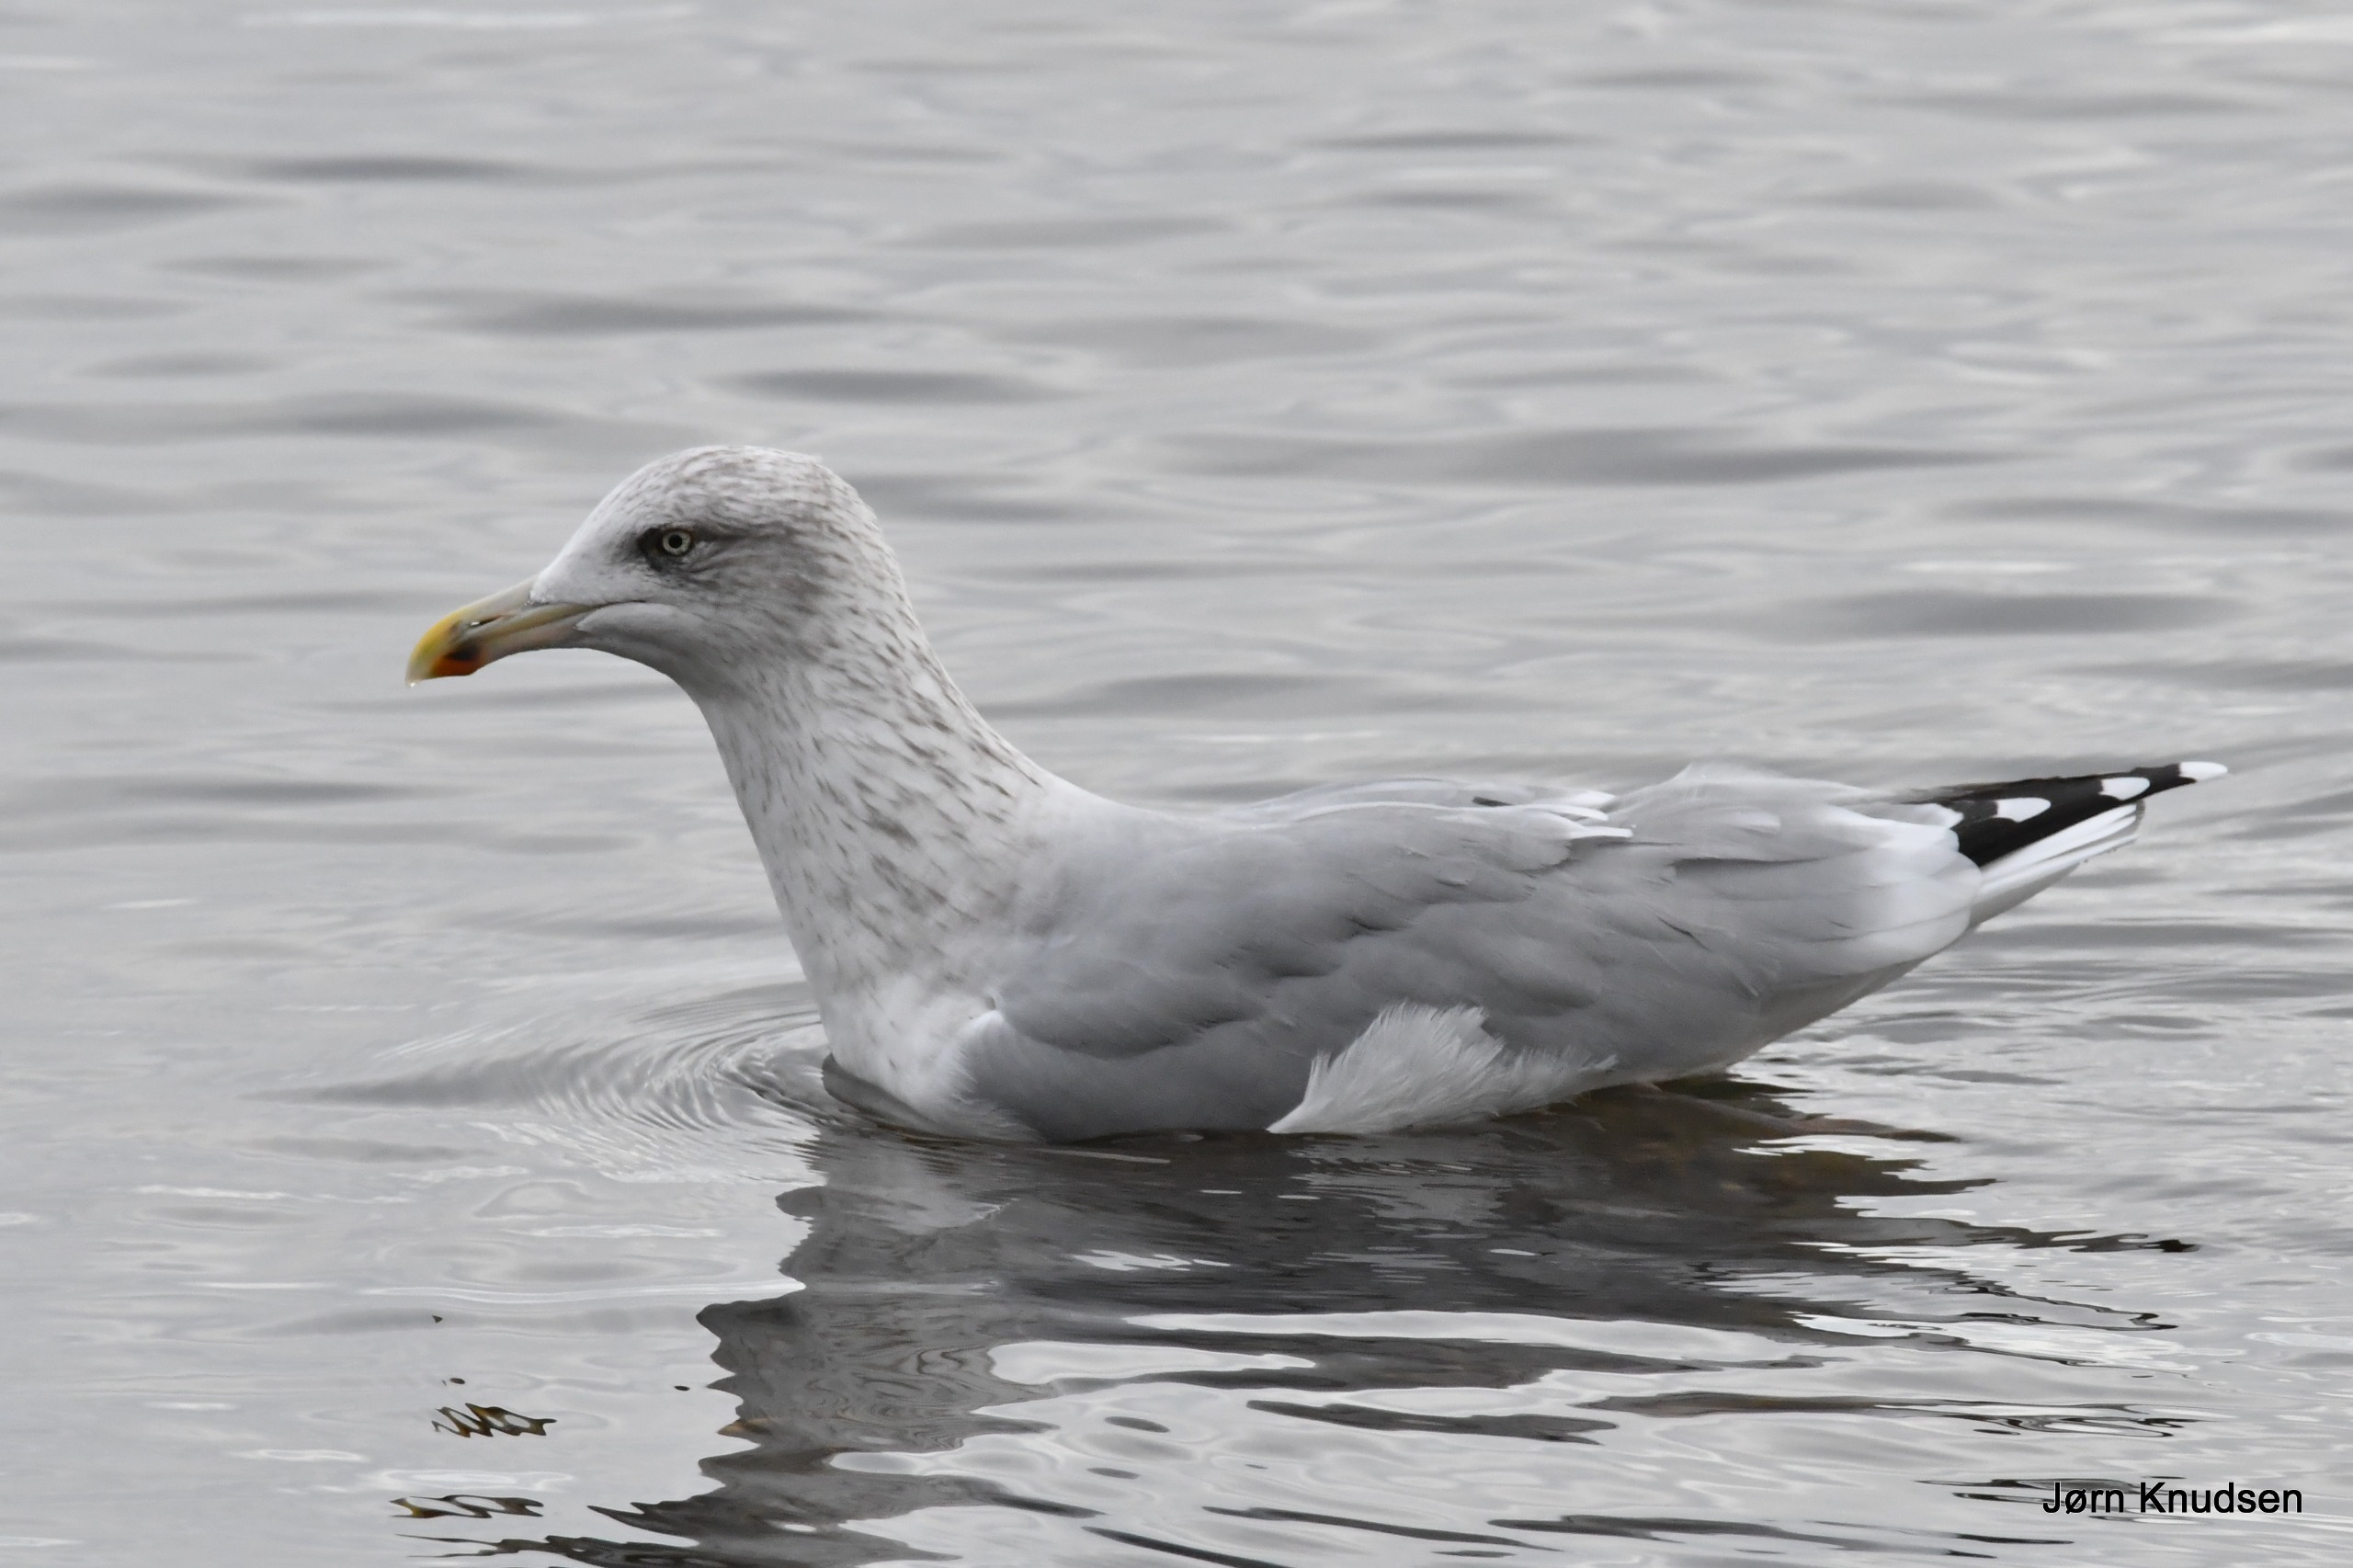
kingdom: Animalia
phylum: Chordata
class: Aves
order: Charadriiformes
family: Laridae
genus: Larus
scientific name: Larus argentatus
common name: Sølvmåge
